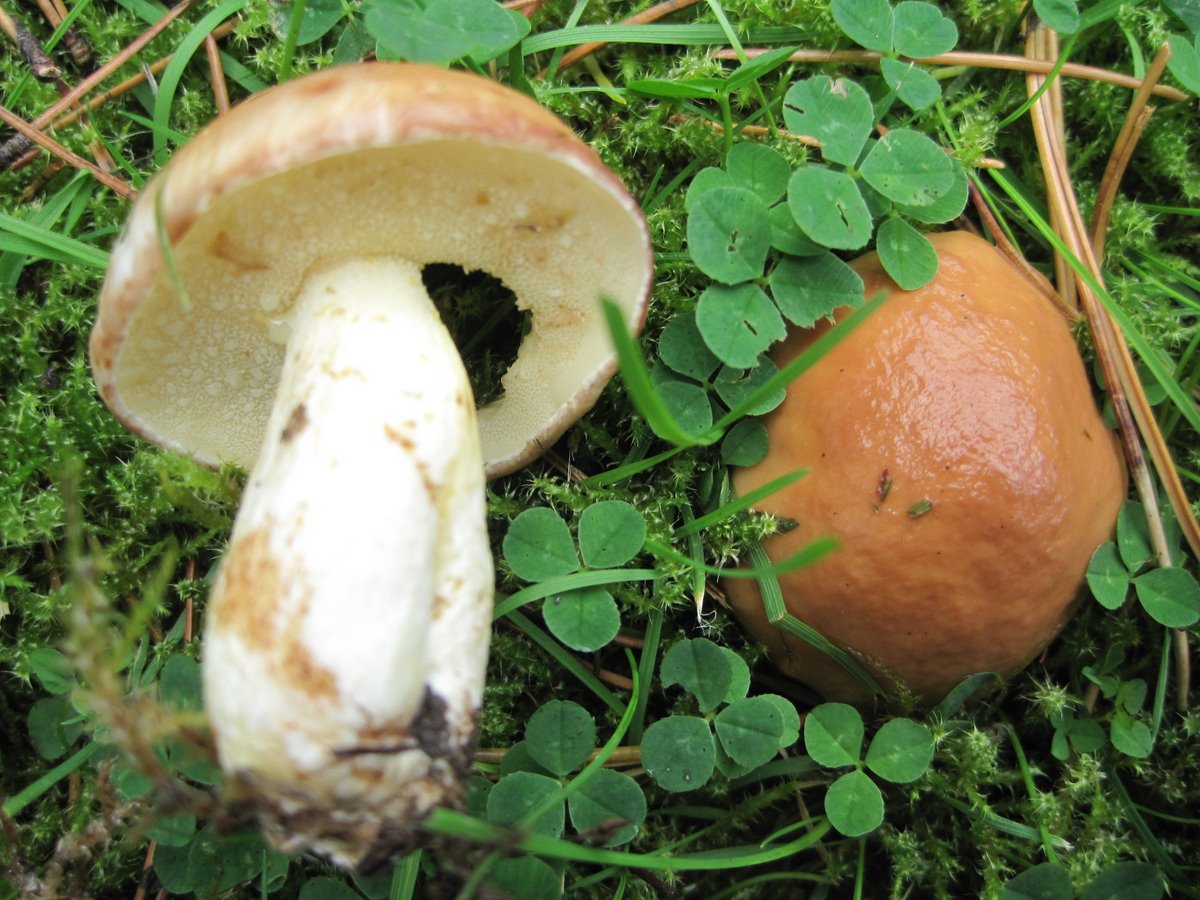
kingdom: Fungi
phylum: Basidiomycota
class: Agaricomycetes
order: Boletales
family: Suillaceae
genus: Suillus
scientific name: Suillus granulatus
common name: kornet slimrørhat
